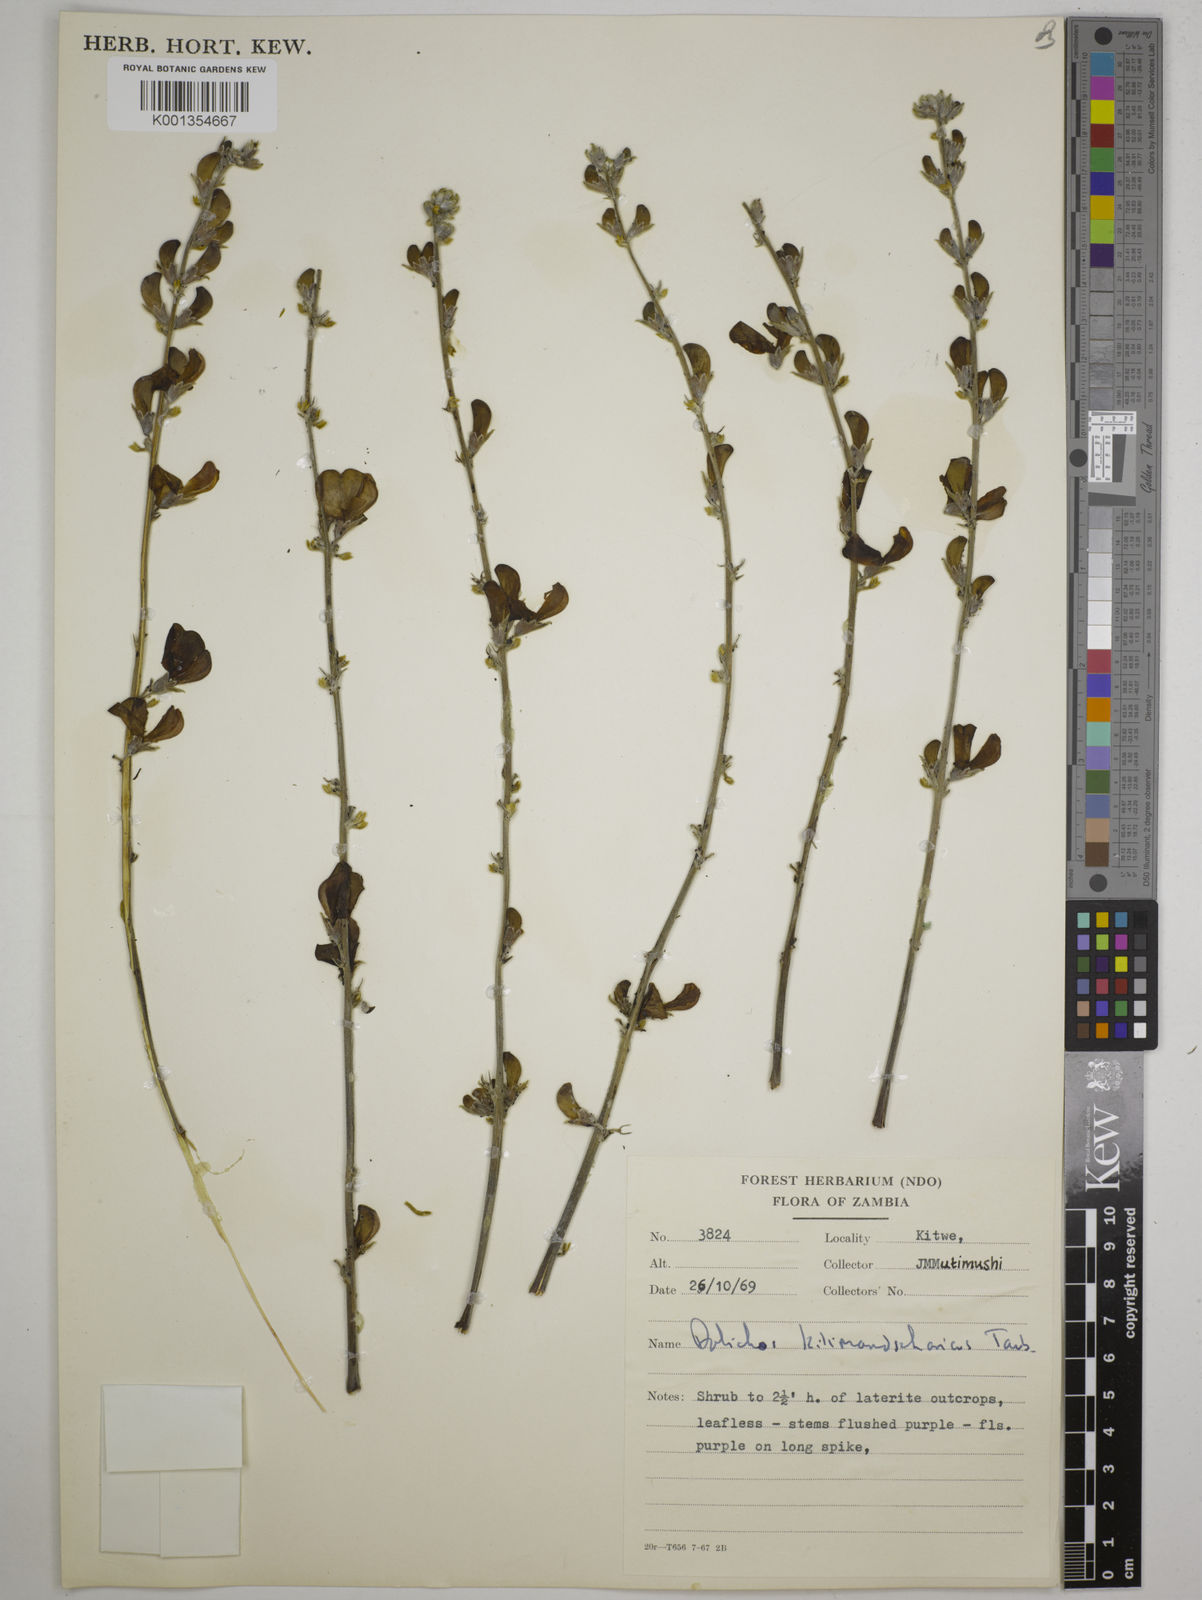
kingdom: Plantae
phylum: Tracheophyta
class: Magnoliopsida
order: Fabales
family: Fabaceae
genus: Dolichos
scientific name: Dolichos kilimandscharicus
